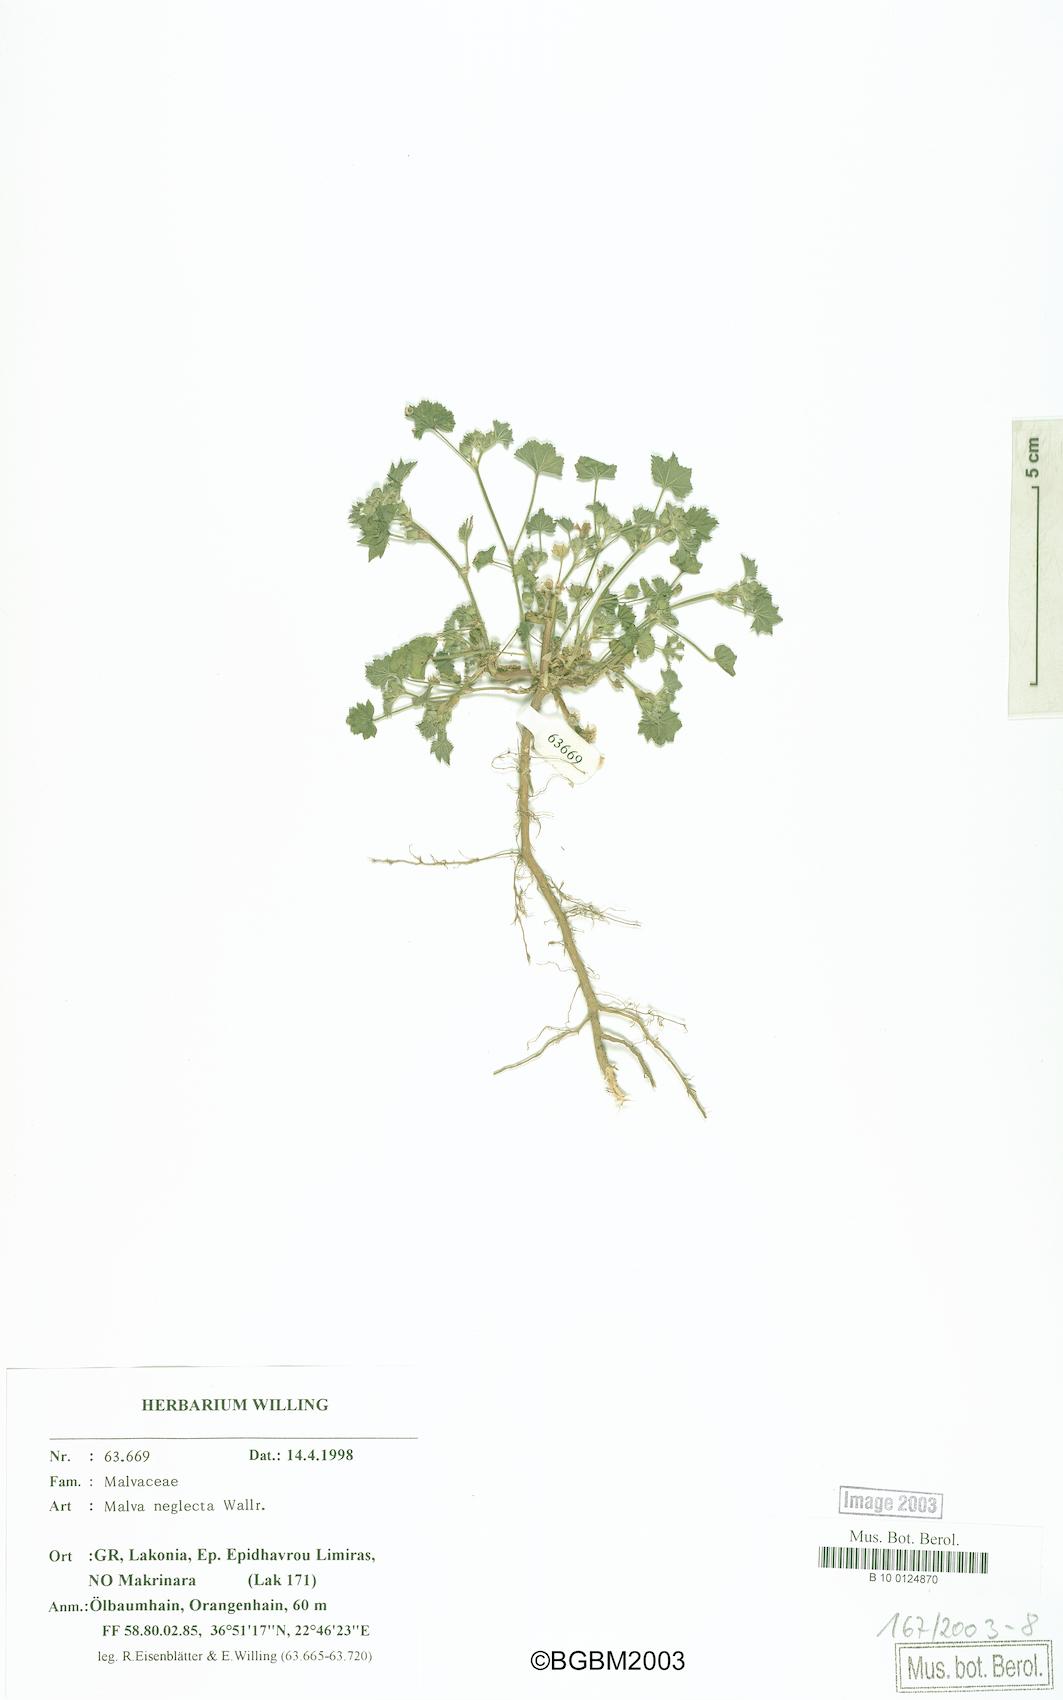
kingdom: Plantae
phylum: Tracheophyta
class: Magnoliopsida
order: Malvales
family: Malvaceae
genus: Malva
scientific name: Malva parviflora
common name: Least mallow
